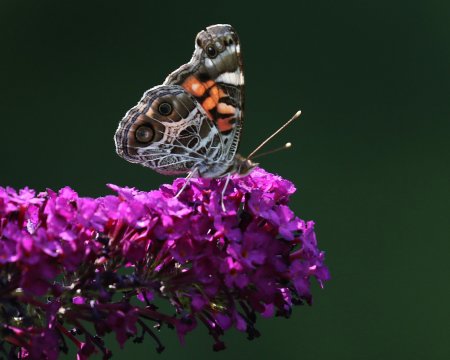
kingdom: Animalia
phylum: Arthropoda
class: Insecta
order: Lepidoptera
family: Nymphalidae
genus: Vanessa
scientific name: Vanessa virginiensis
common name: American Lady
